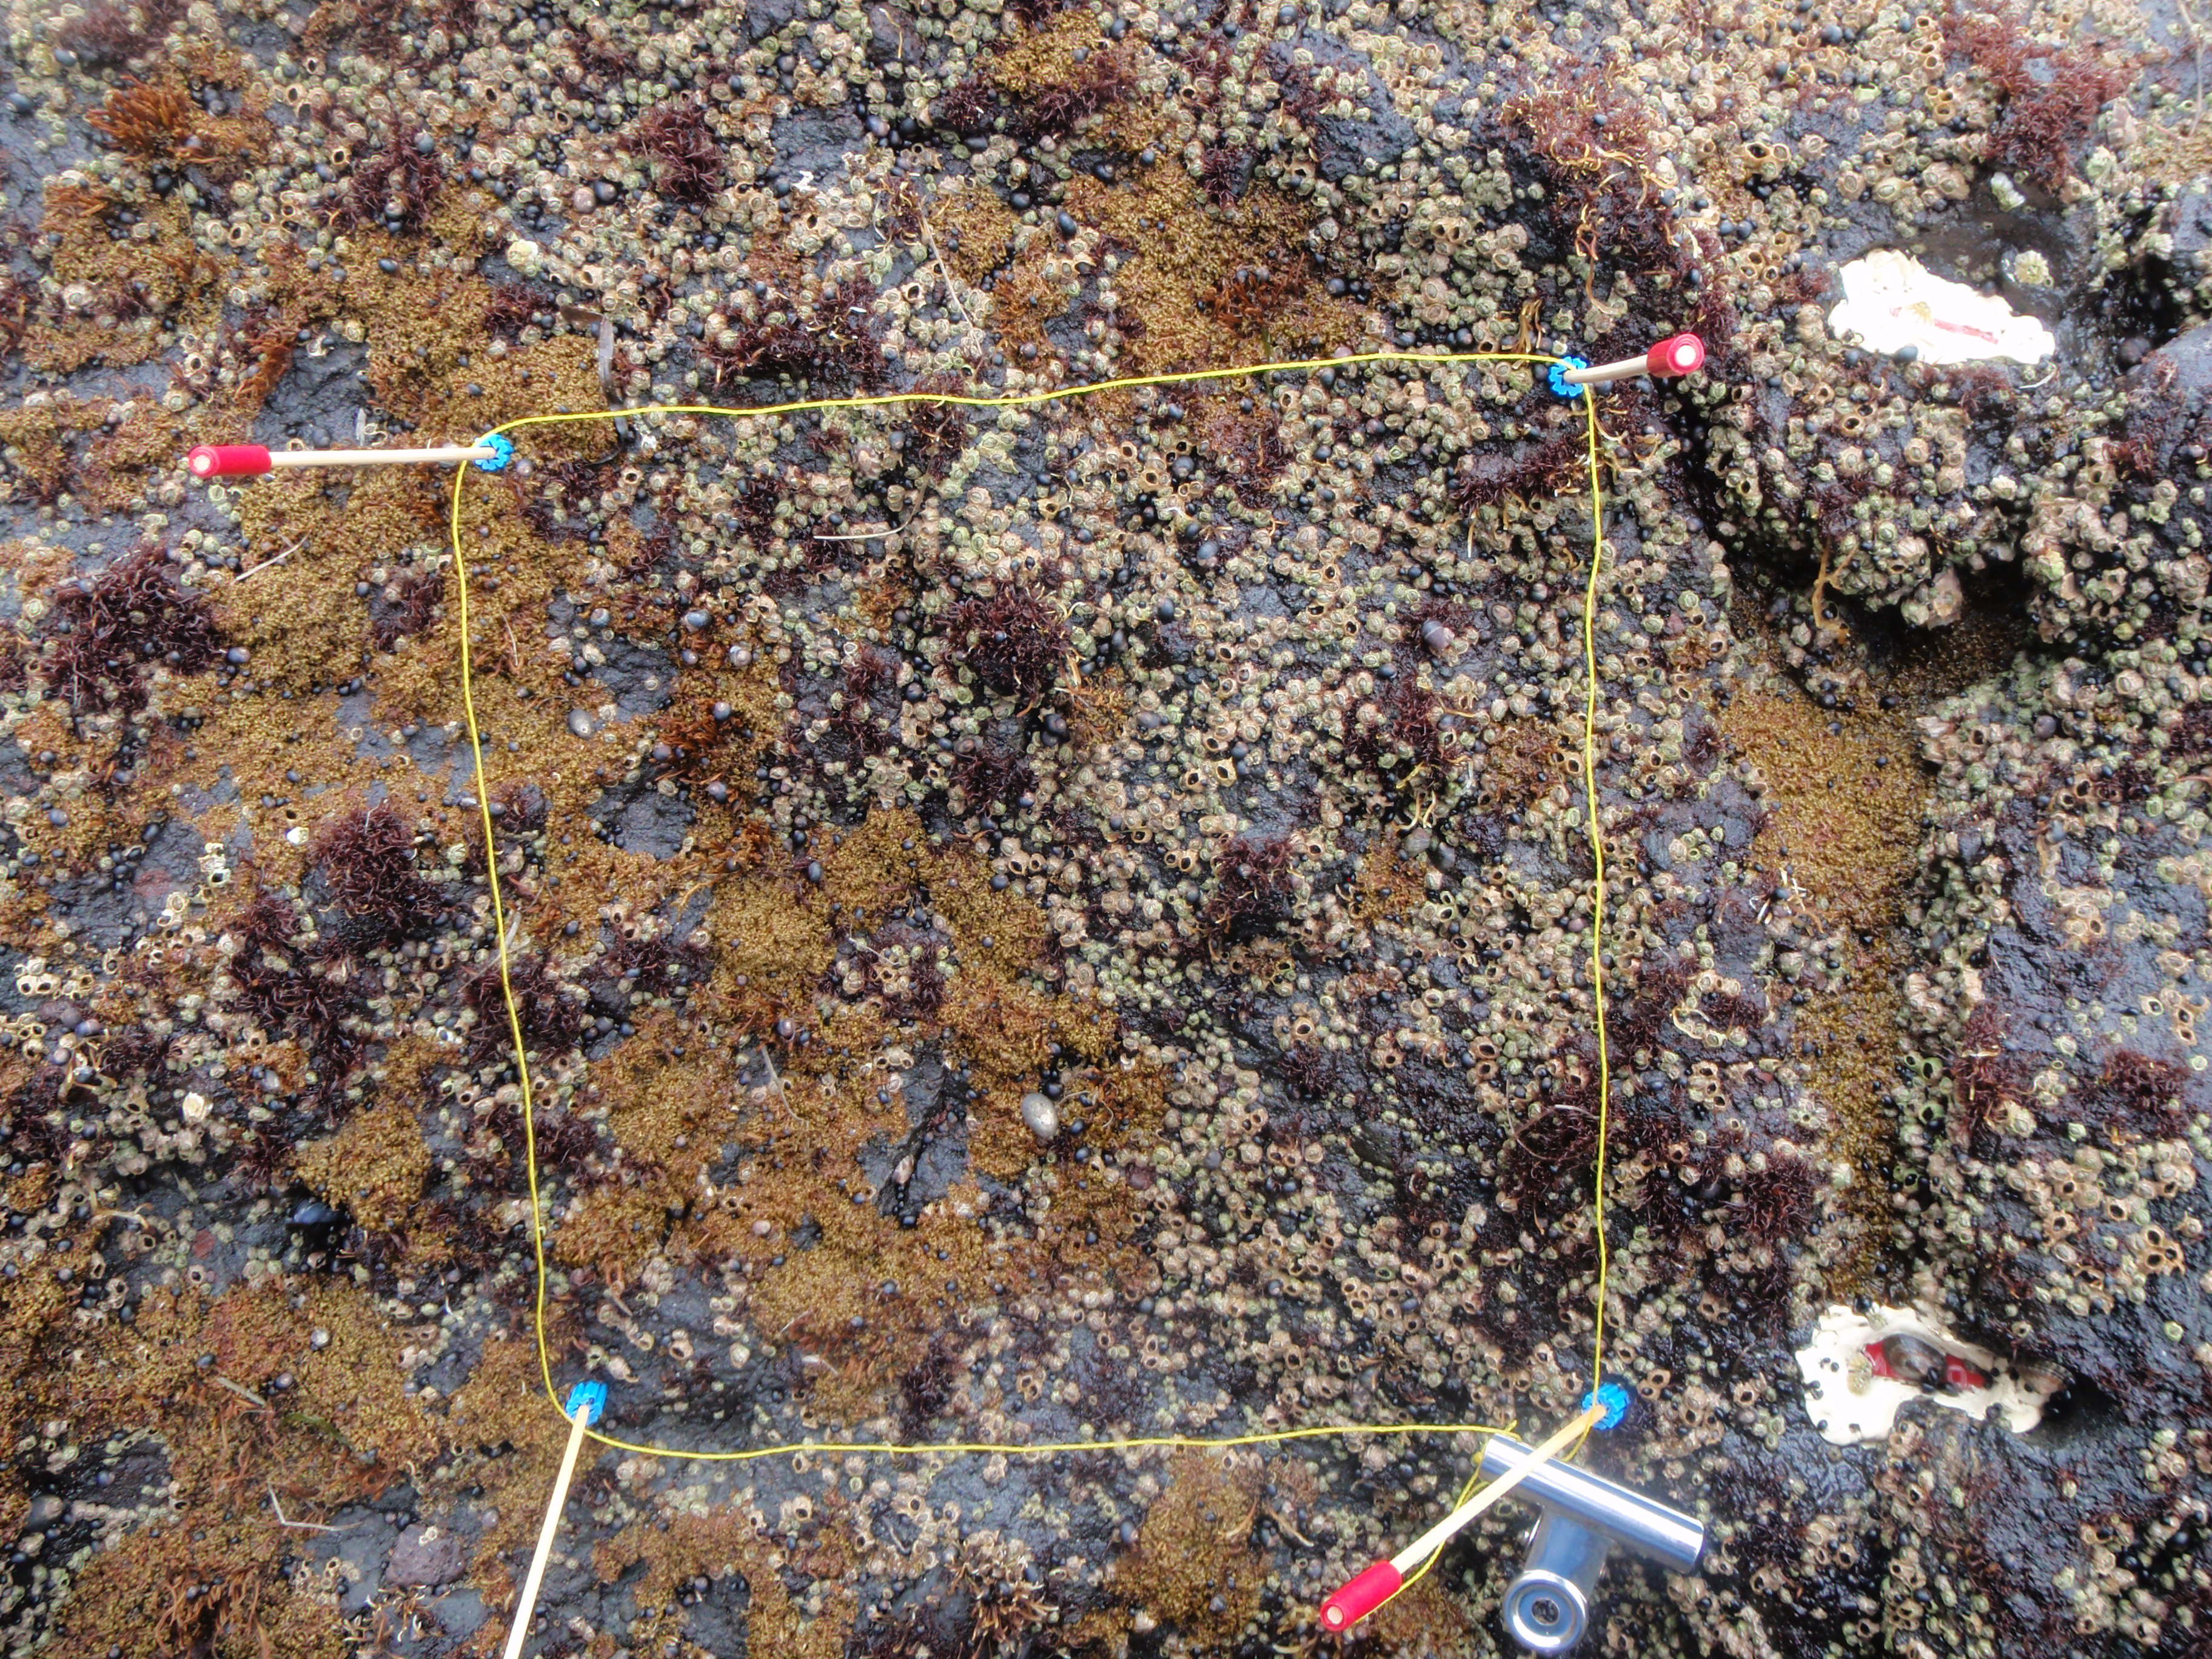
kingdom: Animalia
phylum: Arthropoda
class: Maxillopoda
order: Sessilia
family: Chthamalidae
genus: Chthamalus
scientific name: Chthamalus dalli
